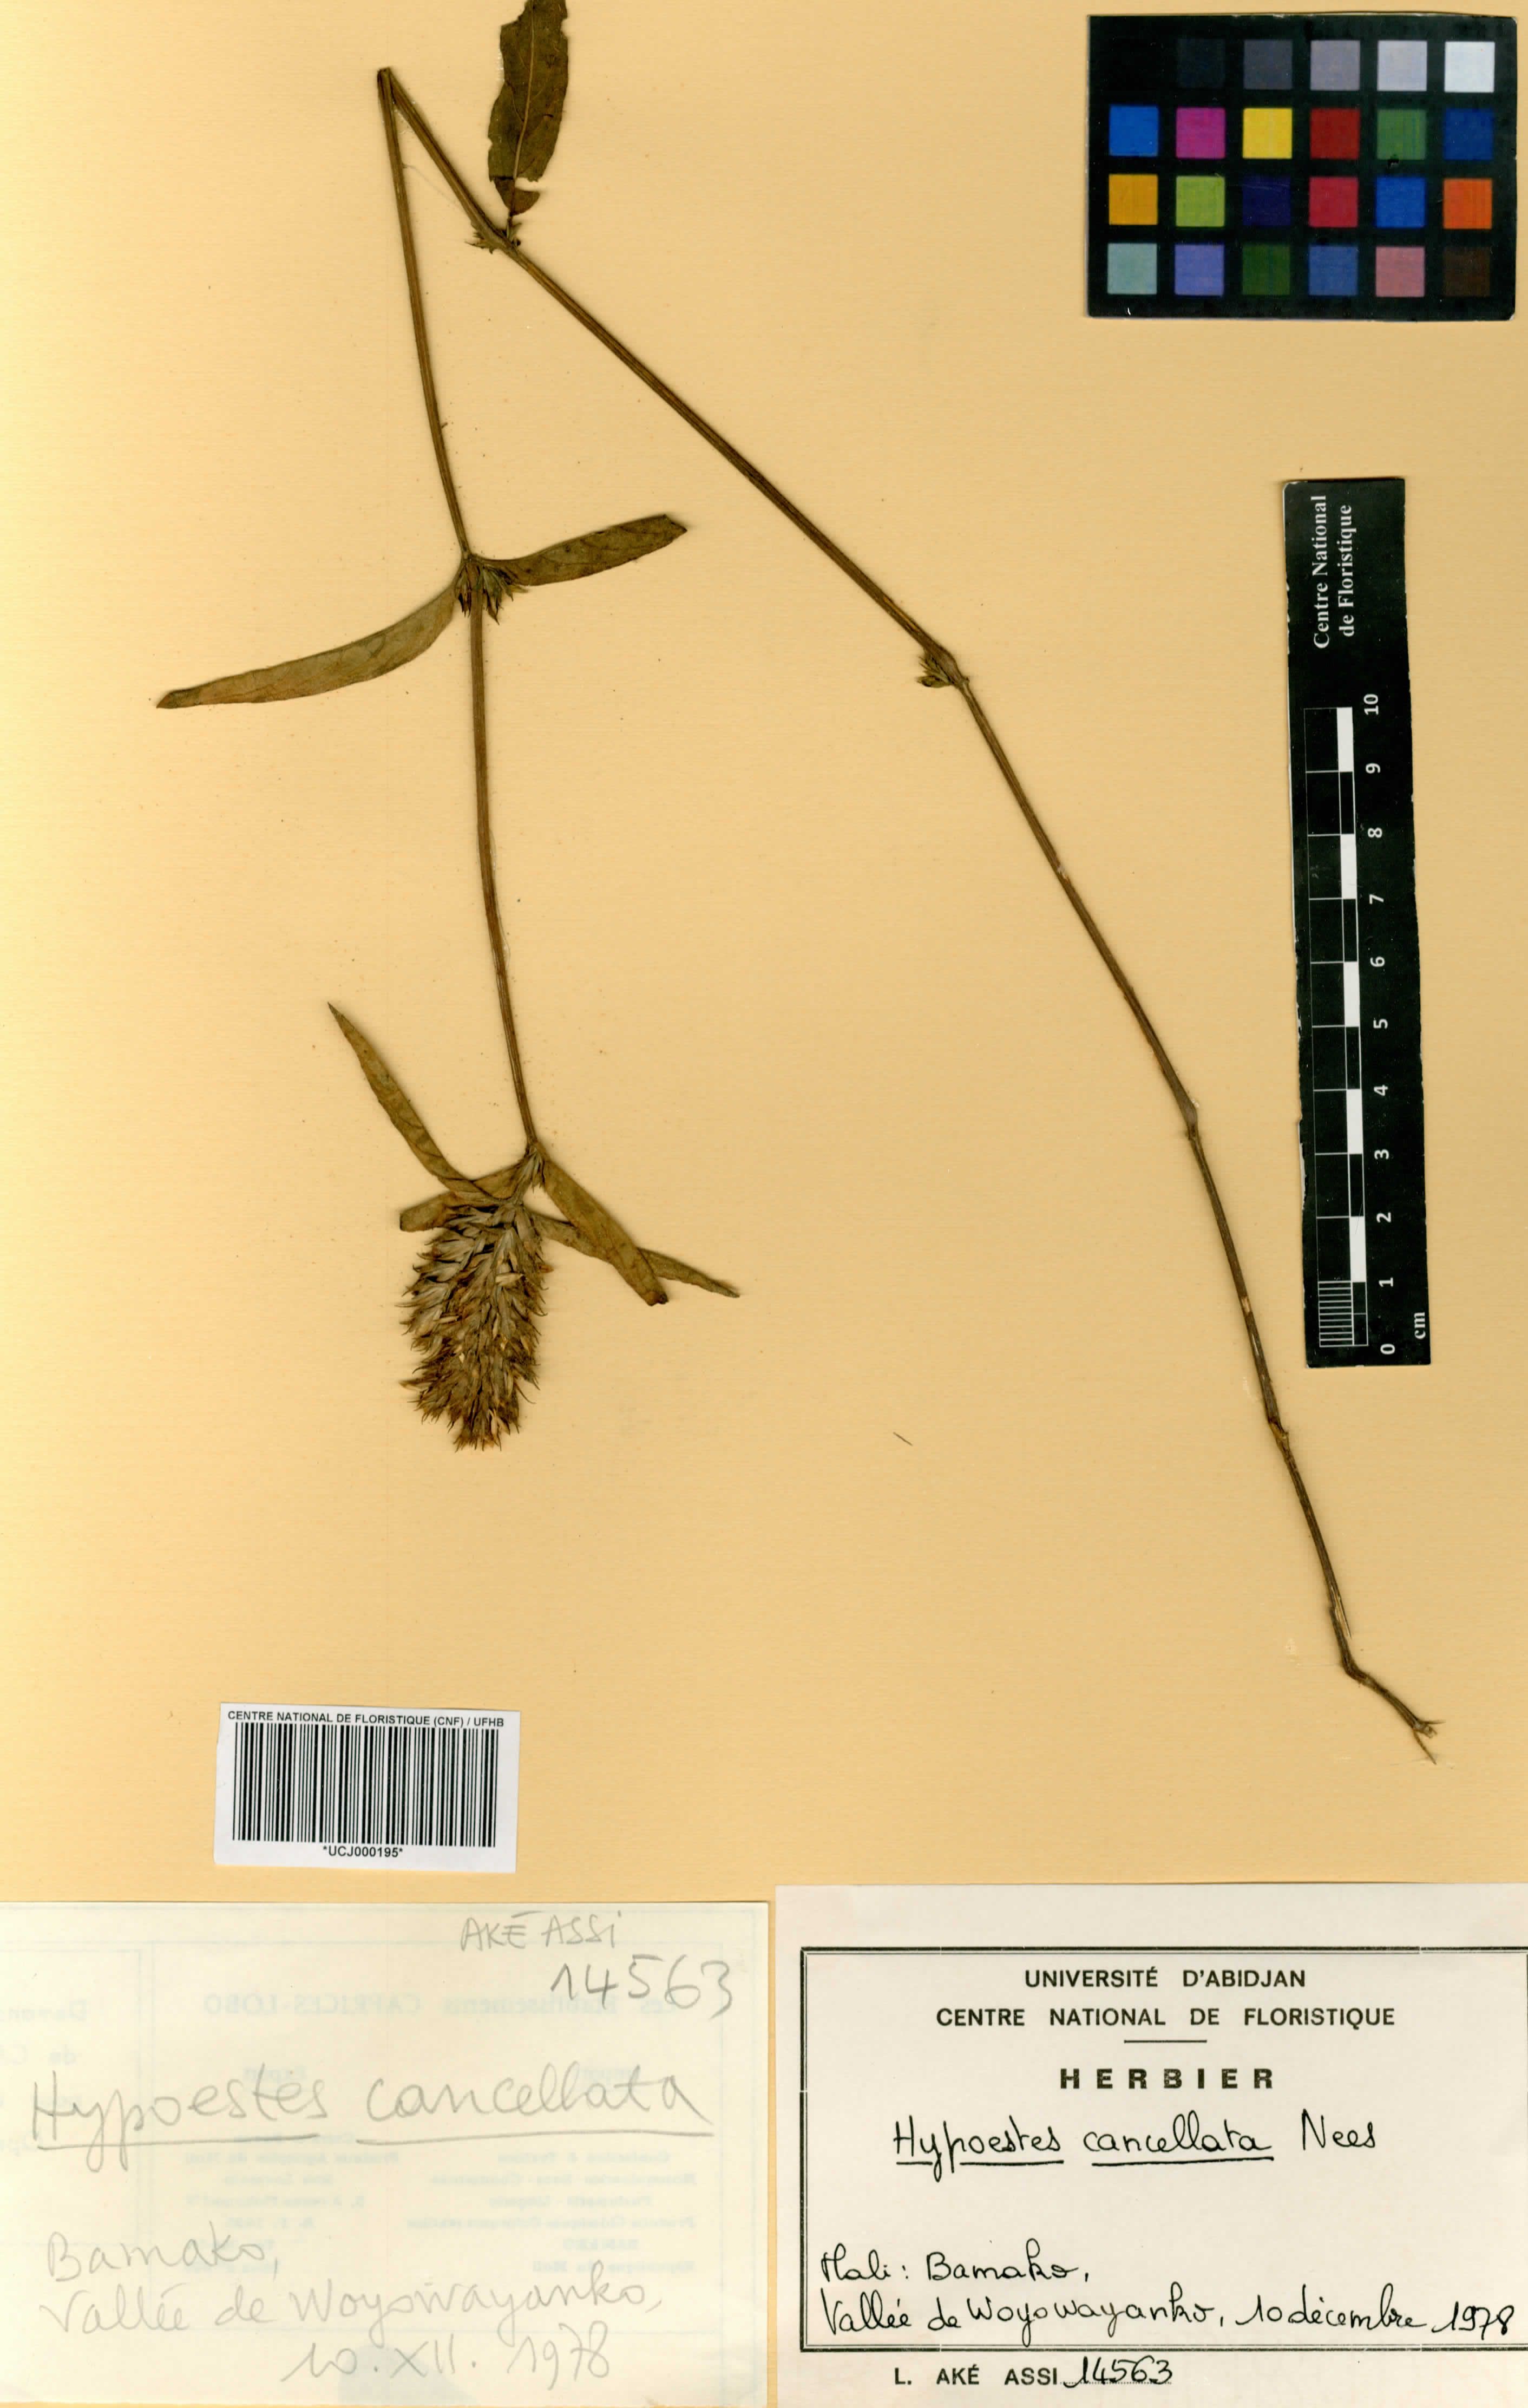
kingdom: Plantae
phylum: Tracheophyta
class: Magnoliopsida
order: Lamiales
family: Acanthaceae
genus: Hypoestes
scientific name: Hypoestes cancellata
